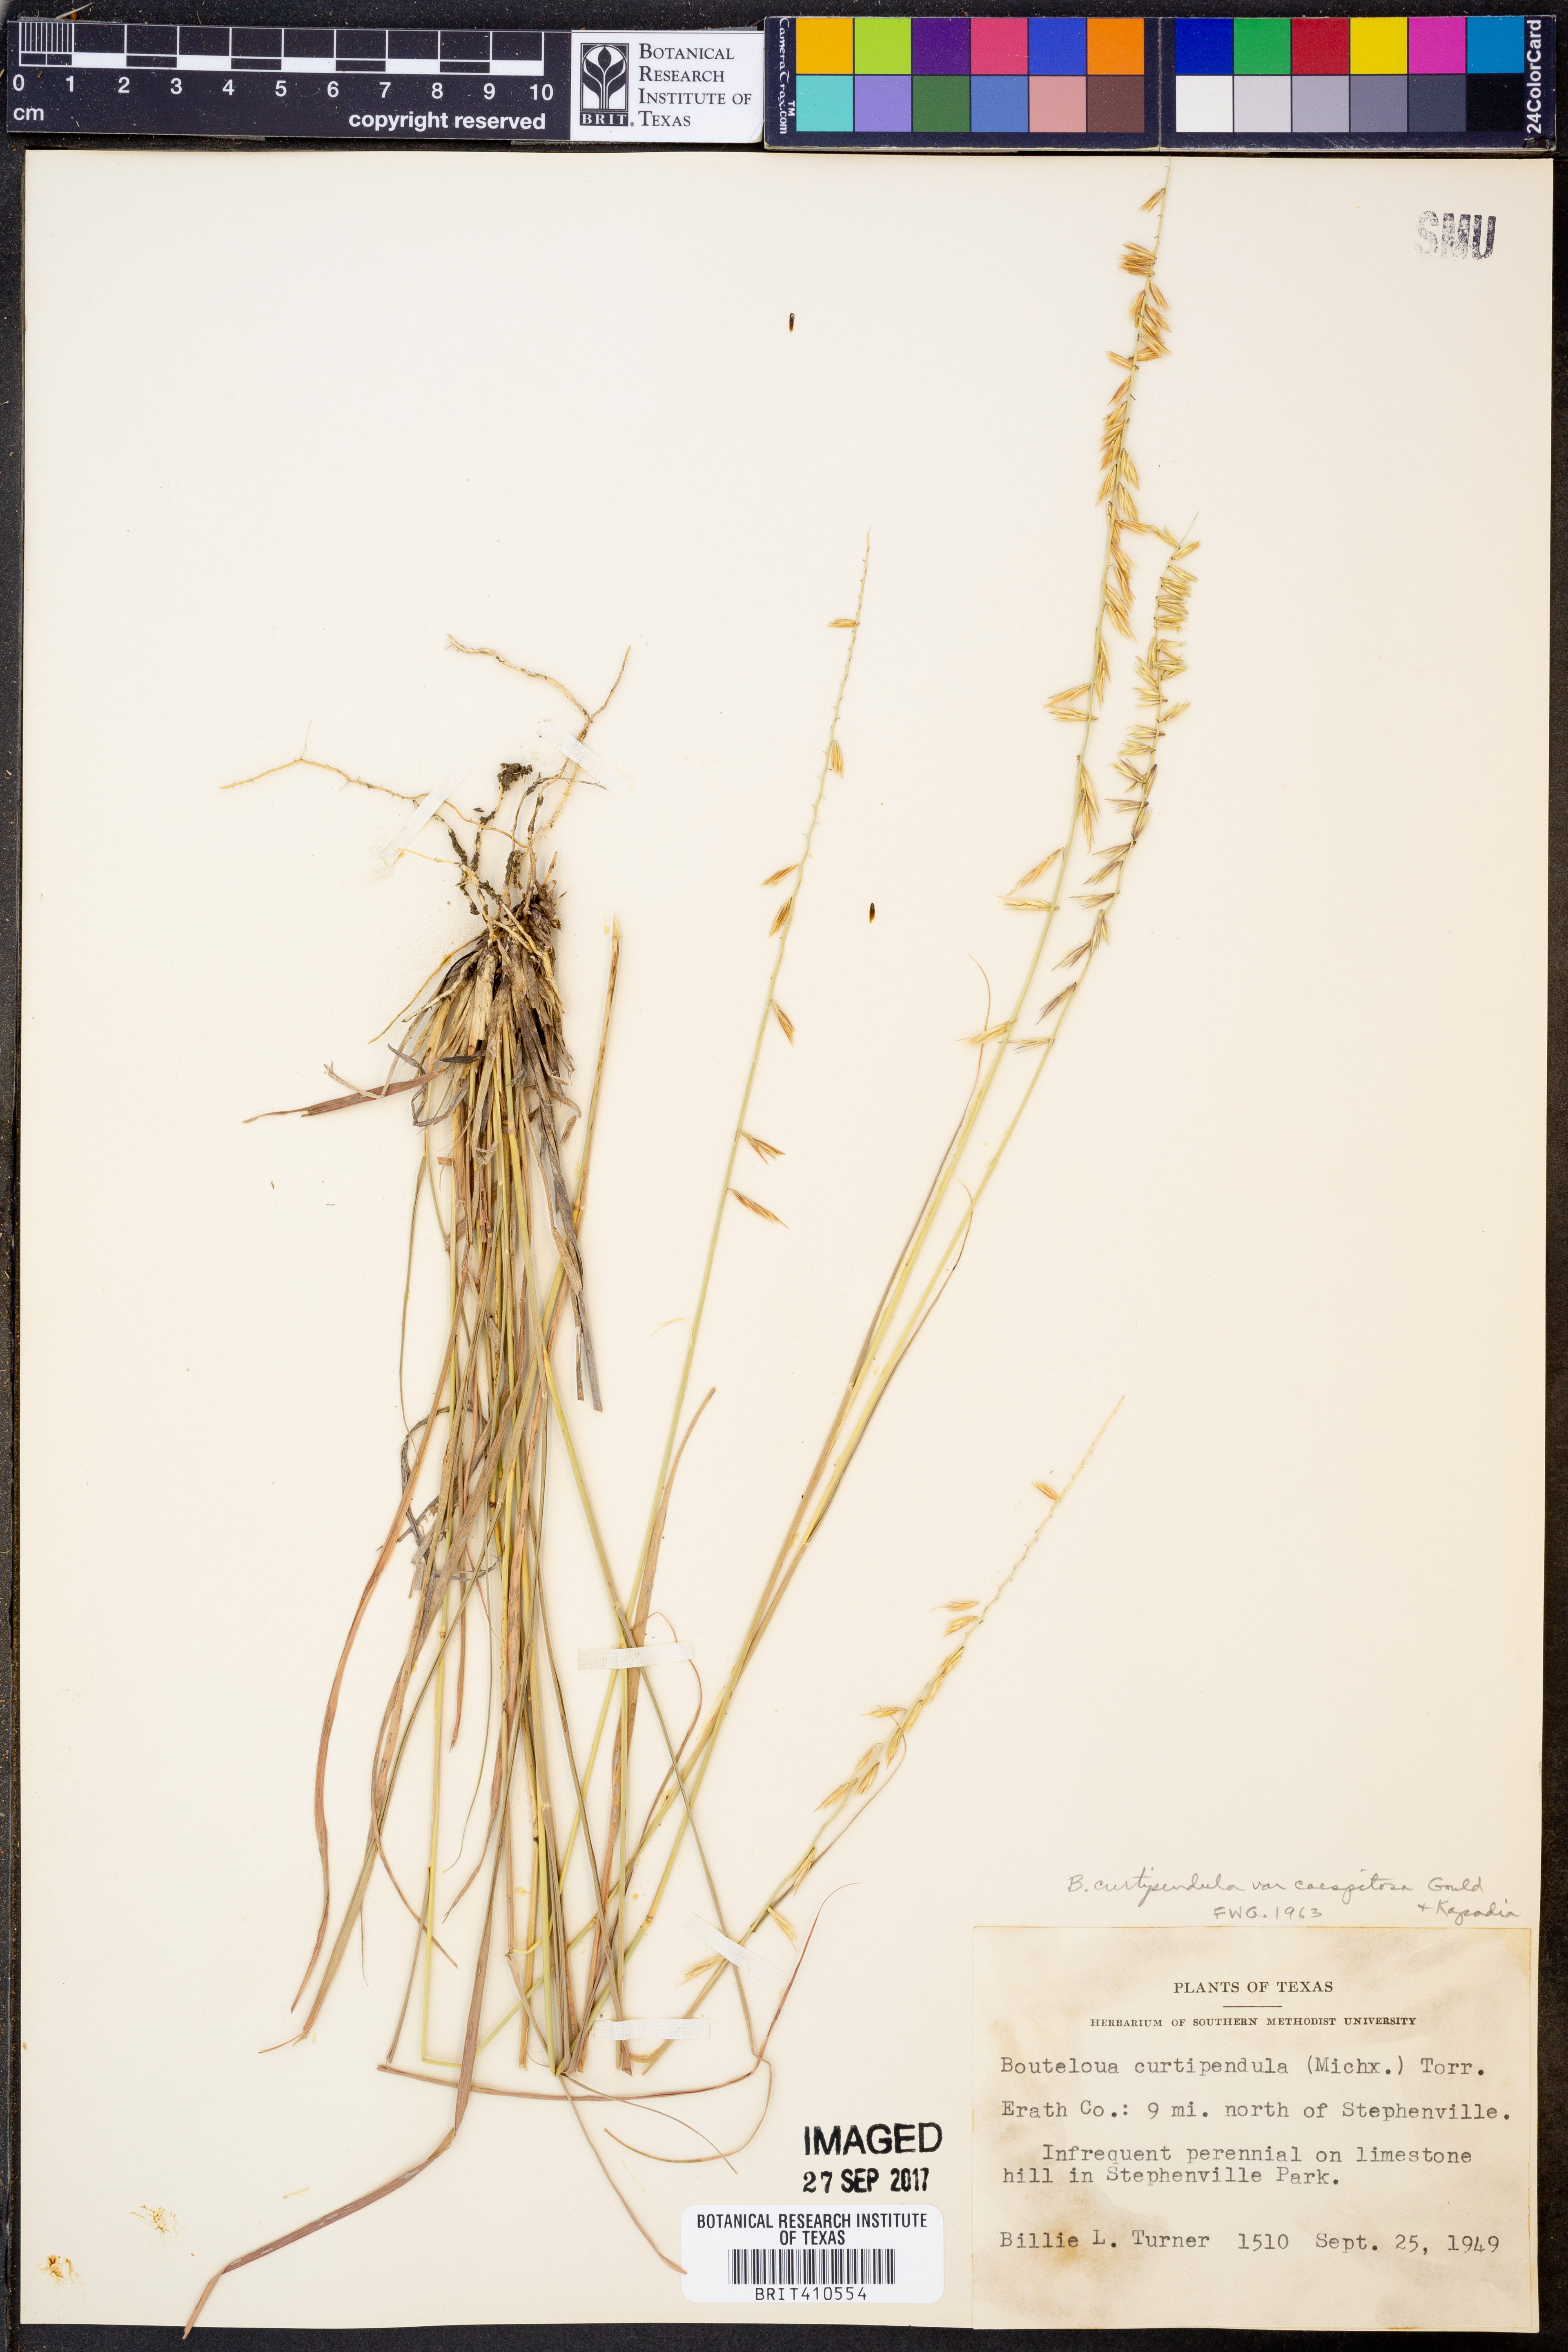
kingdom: Plantae
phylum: Tracheophyta
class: Liliopsida
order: Poales
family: Poaceae
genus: Bouteloua
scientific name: Bouteloua curtipendula
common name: Side-oats grama
